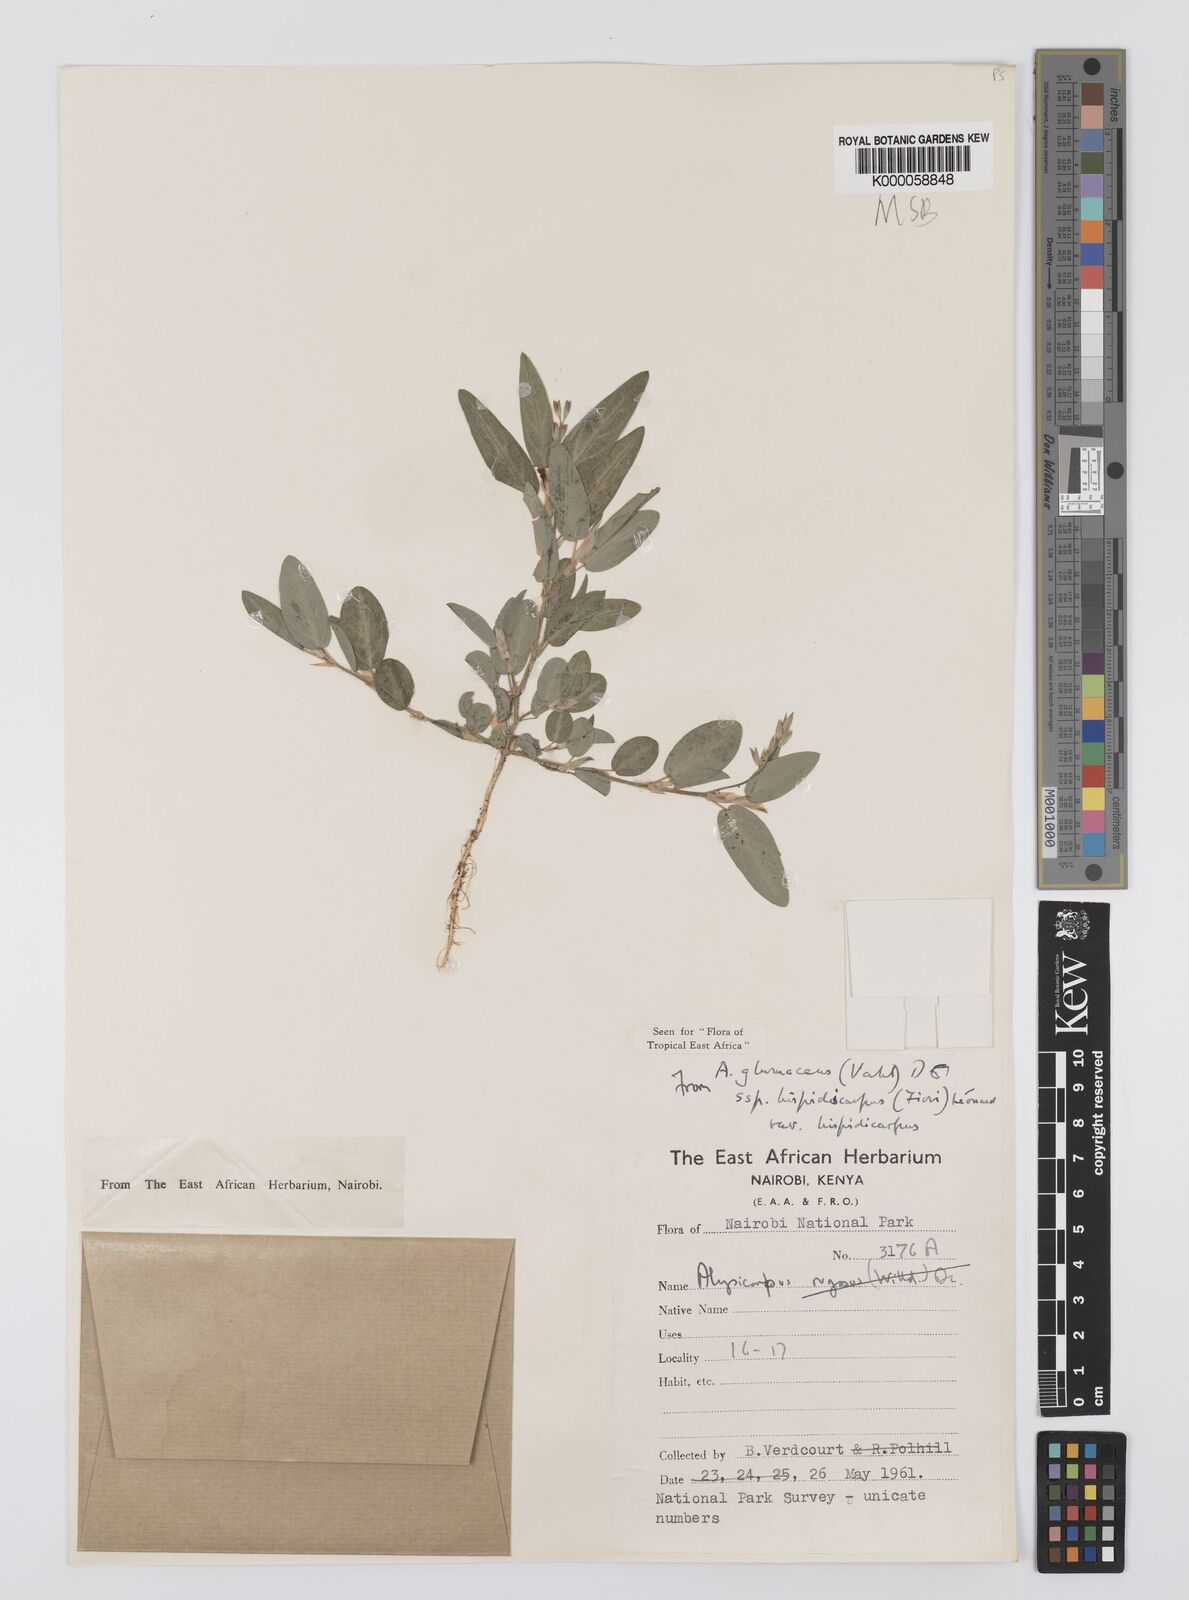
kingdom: Plantae
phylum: Tracheophyta
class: Magnoliopsida
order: Fabales
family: Fabaceae
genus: Alysicarpus
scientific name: Alysicarpus glumaceus
